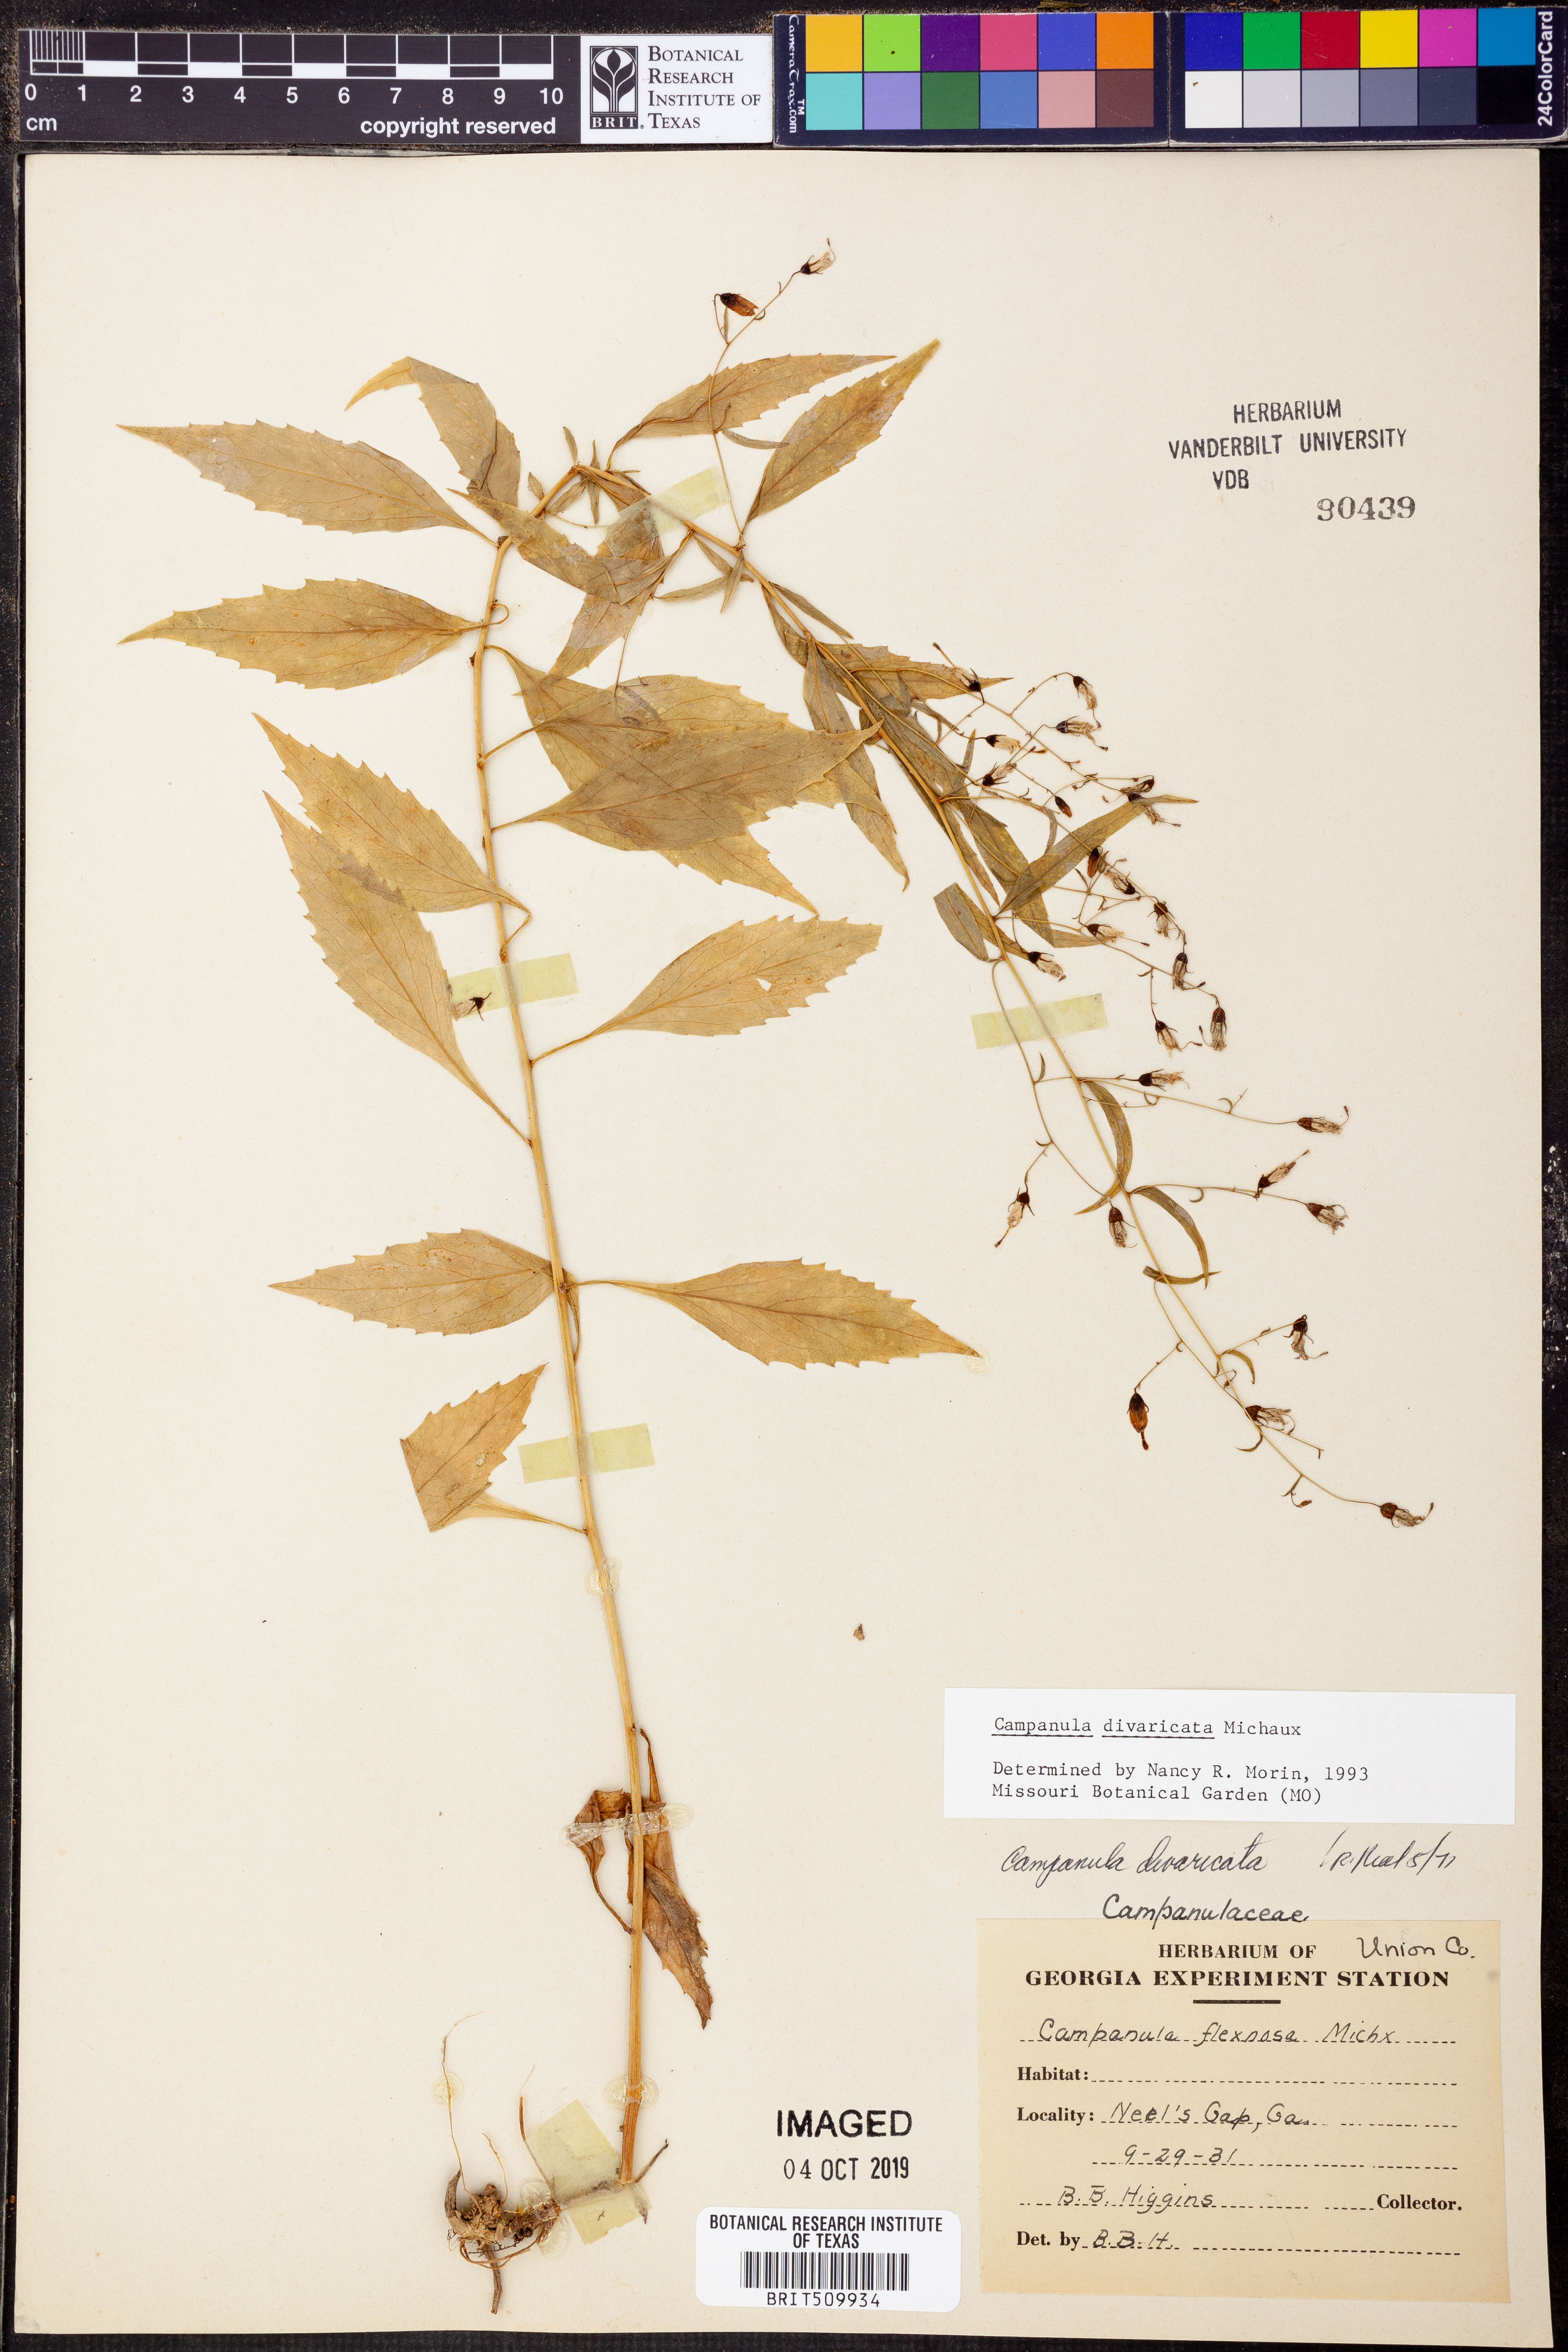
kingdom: Plantae
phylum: Tracheophyta
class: Magnoliopsida
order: Asterales
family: Campanulaceae
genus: Campanula
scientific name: Campanula divaricata
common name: Appalachian bellflower
